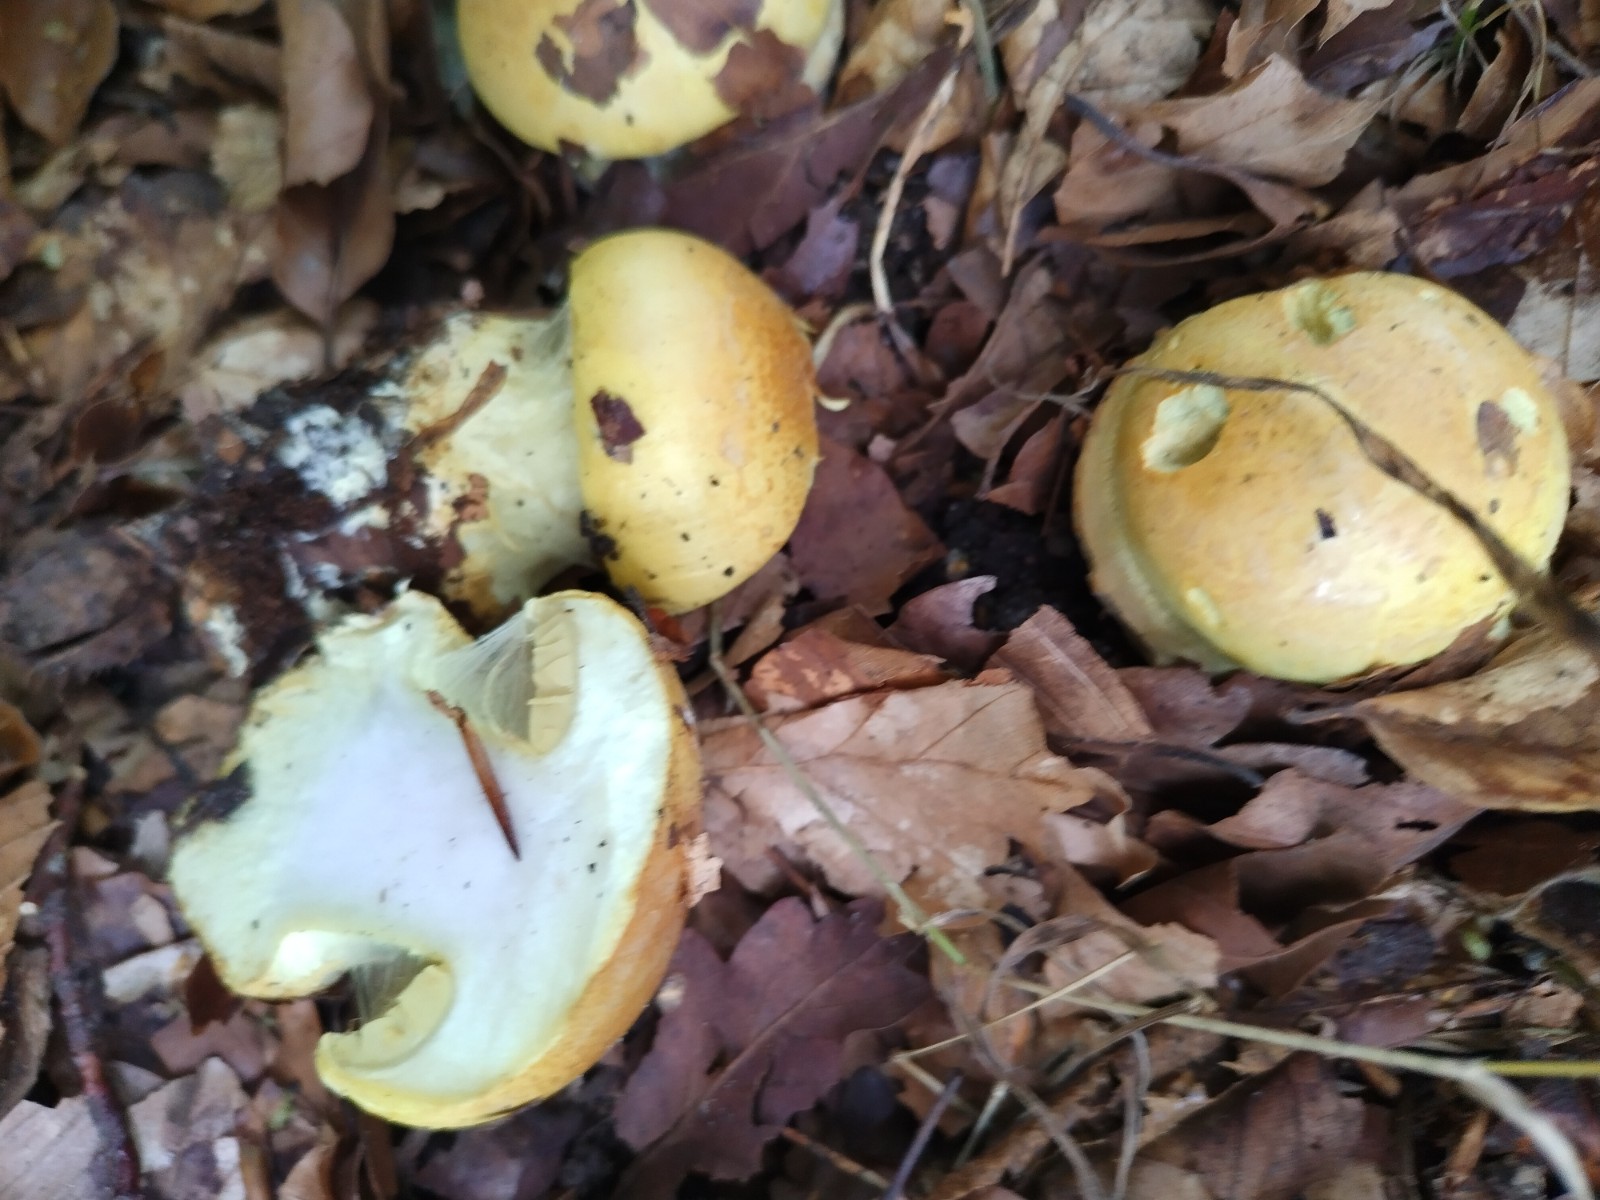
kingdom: Fungi
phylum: Basidiomycota
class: Agaricomycetes
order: Agaricales
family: Cortinariaceae
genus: Calonarius
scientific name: Calonarius elegantissimus
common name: orangegylden slørhat
